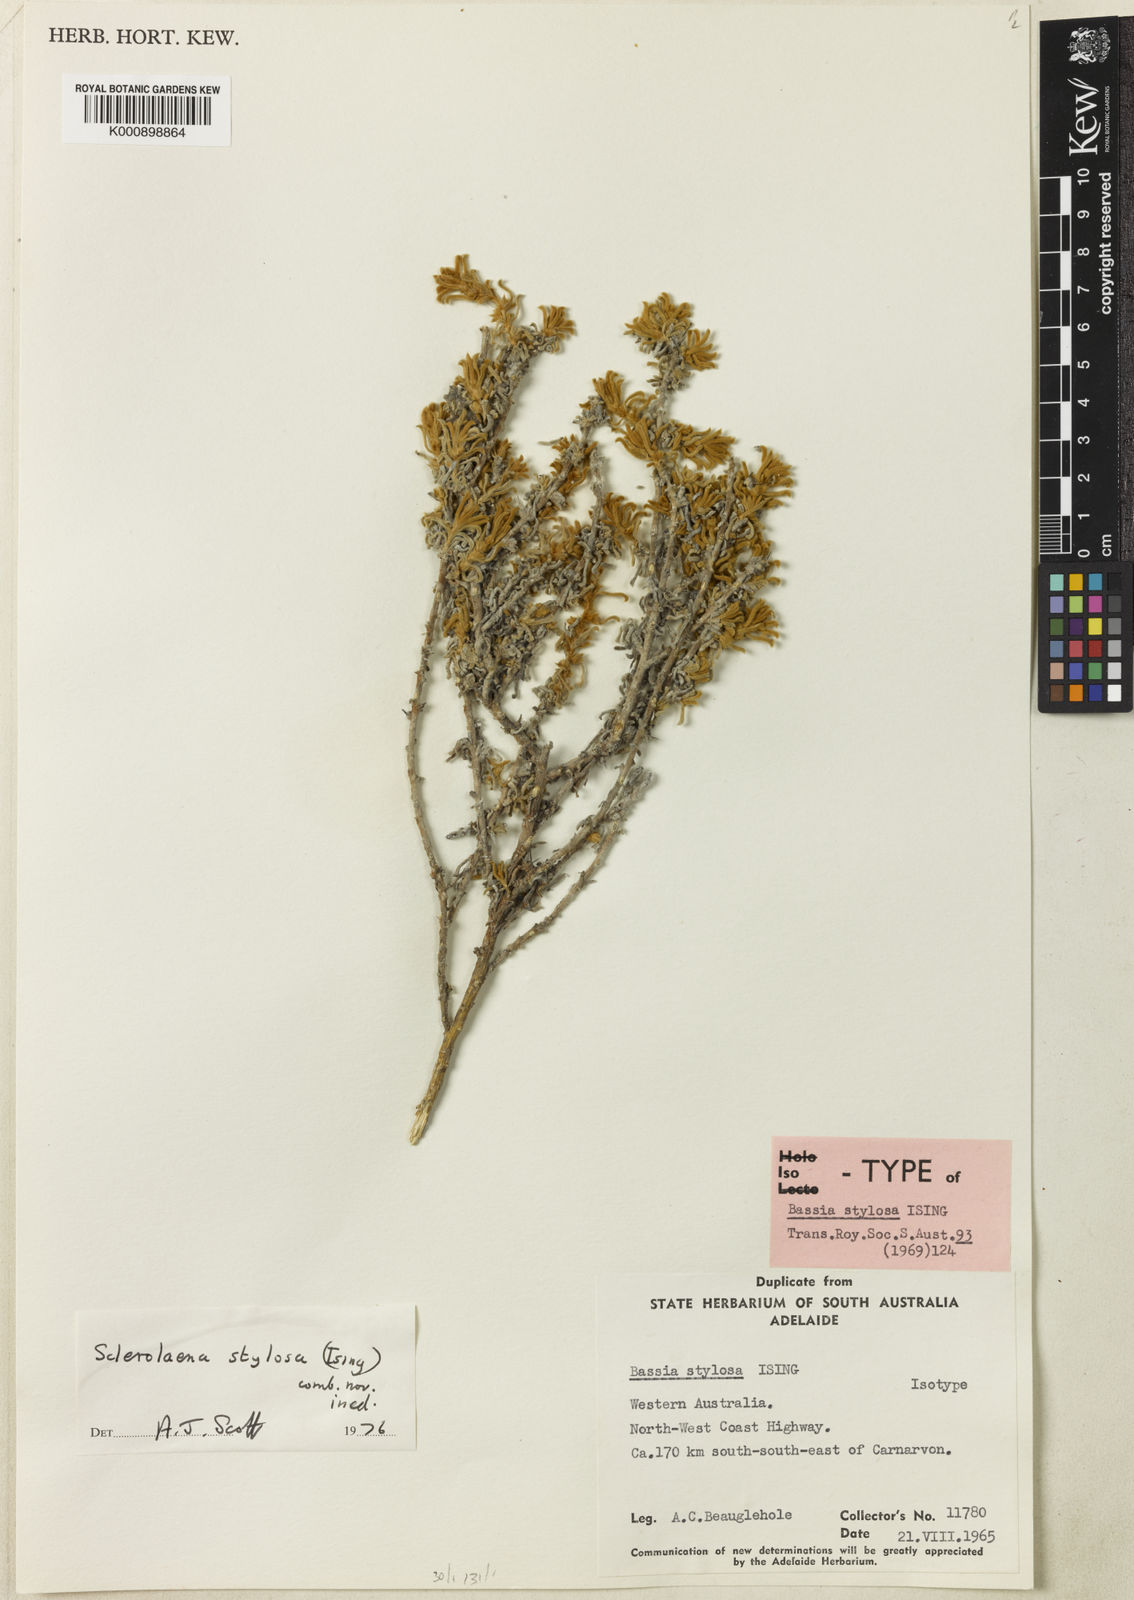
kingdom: Plantae
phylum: Tracheophyta
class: Magnoliopsida
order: Caryophyllales
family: Amaranthaceae
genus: Sclerolaena
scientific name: Sclerolaena stylosa
